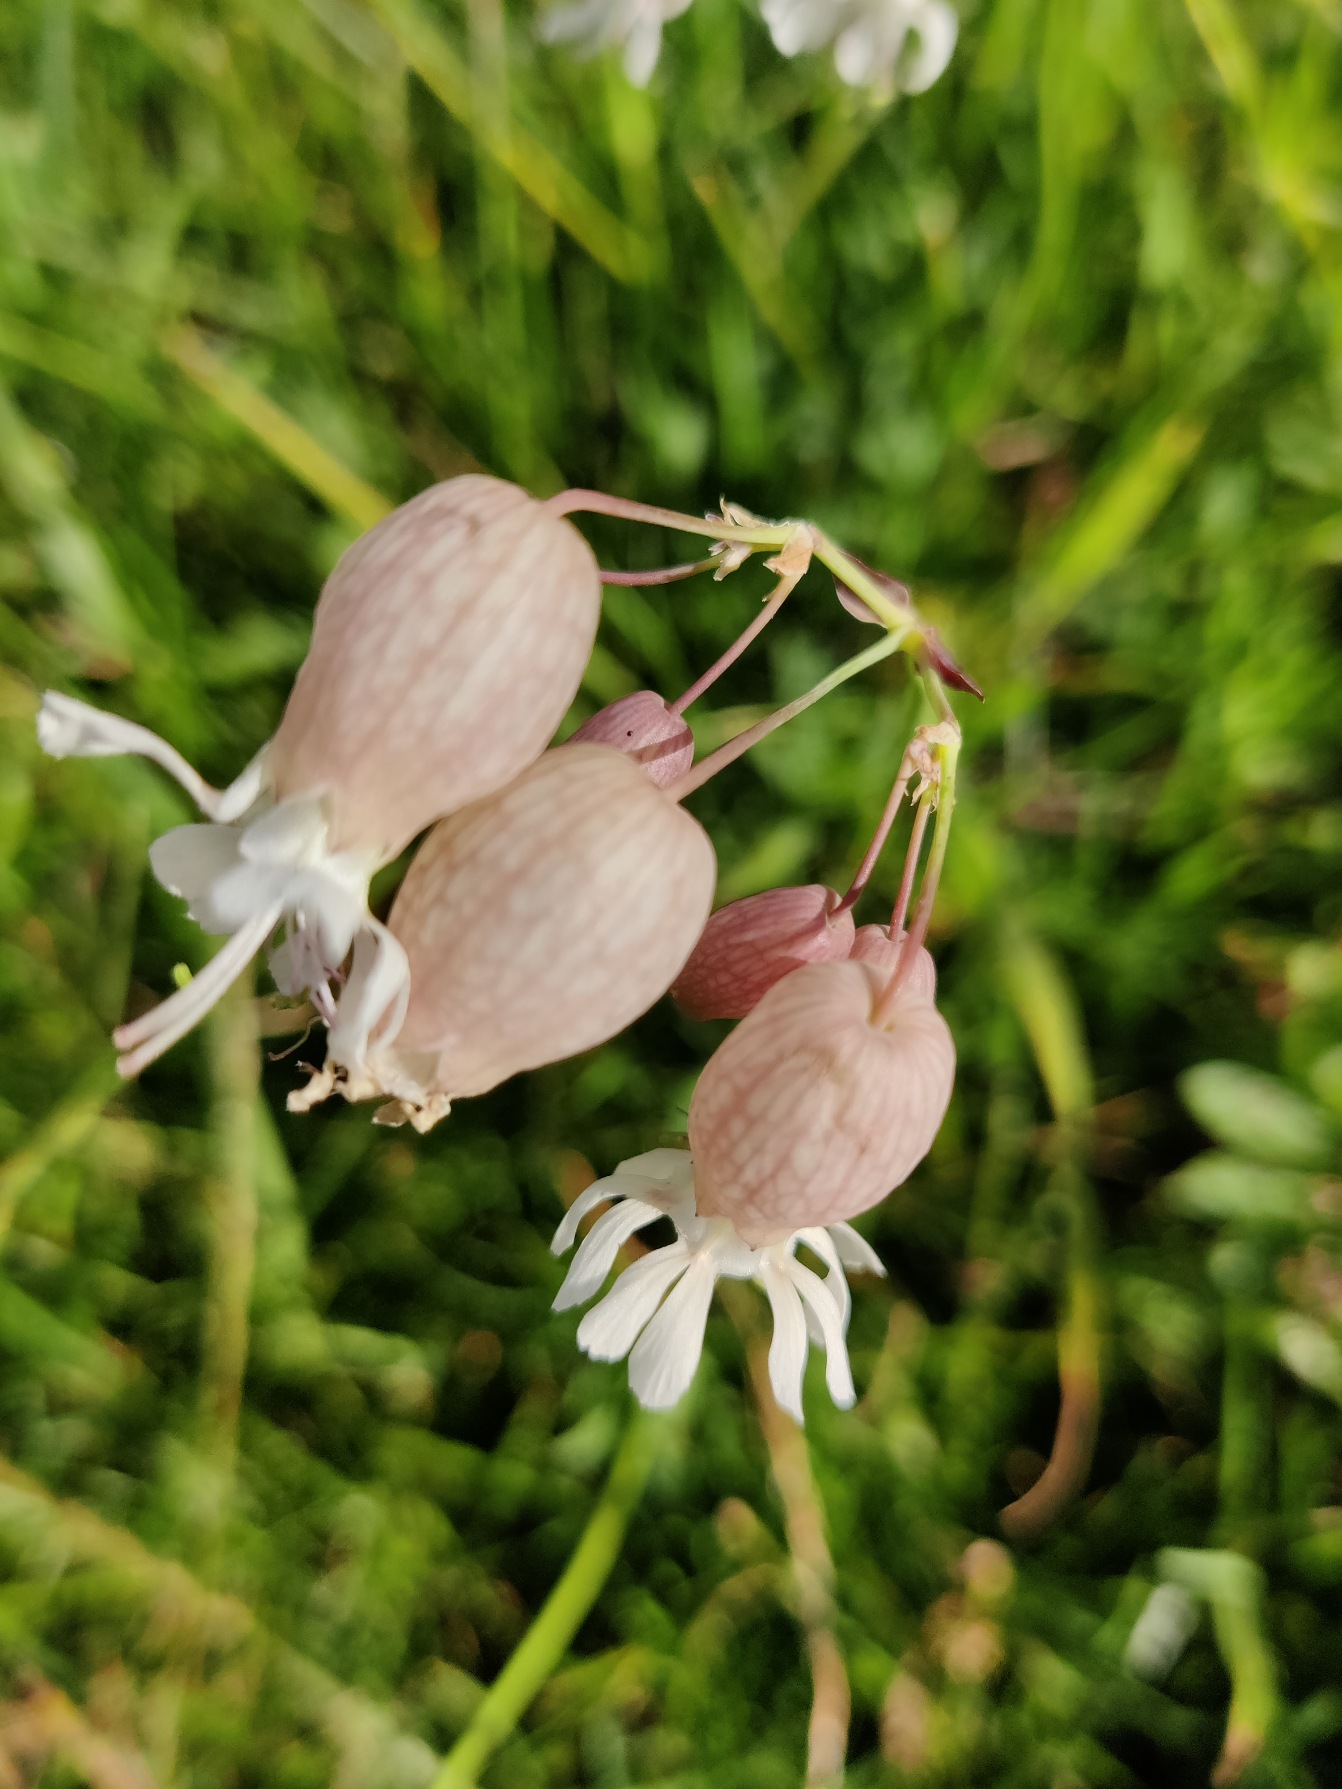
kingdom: Plantae
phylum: Tracheophyta
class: Magnoliopsida
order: Caryophyllales
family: Caryophyllaceae
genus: Silene
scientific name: Silene vulgaris
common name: Blæresmælde
